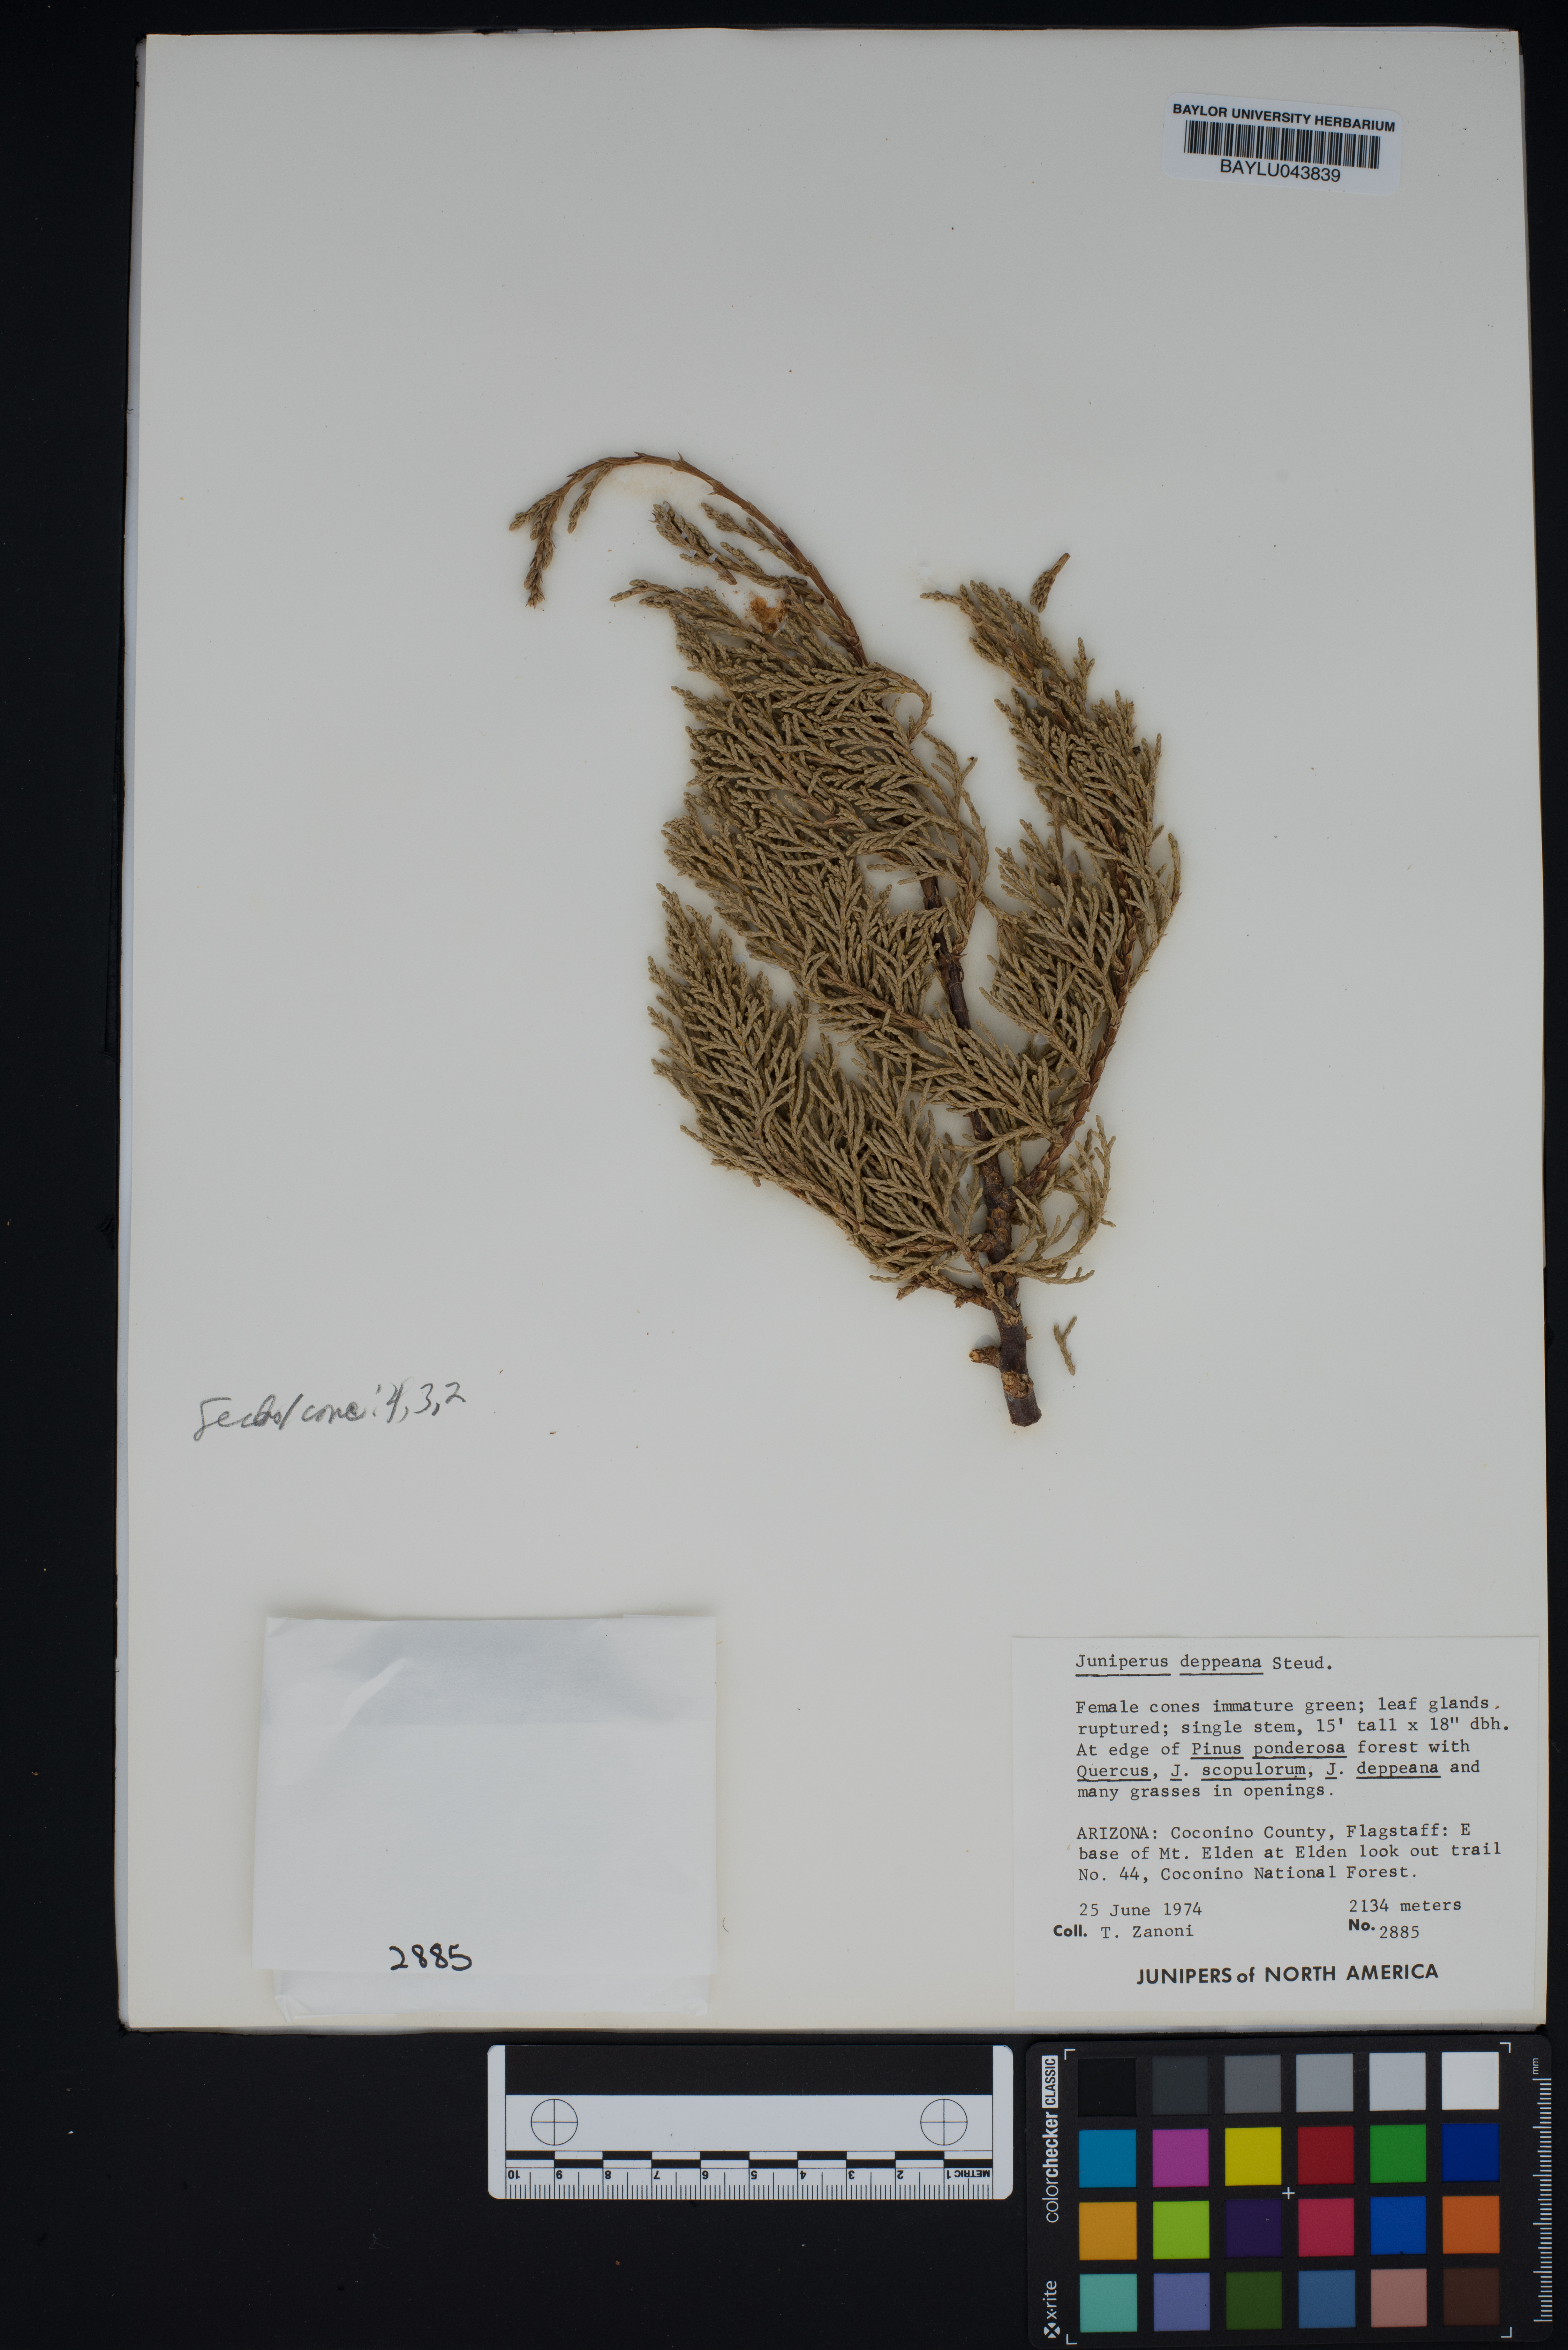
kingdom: Plantae
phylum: Tracheophyta
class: Pinopsida
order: Pinales
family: Cupressaceae
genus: Juniperus
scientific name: Juniperus deppeana
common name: Alligator juniper
